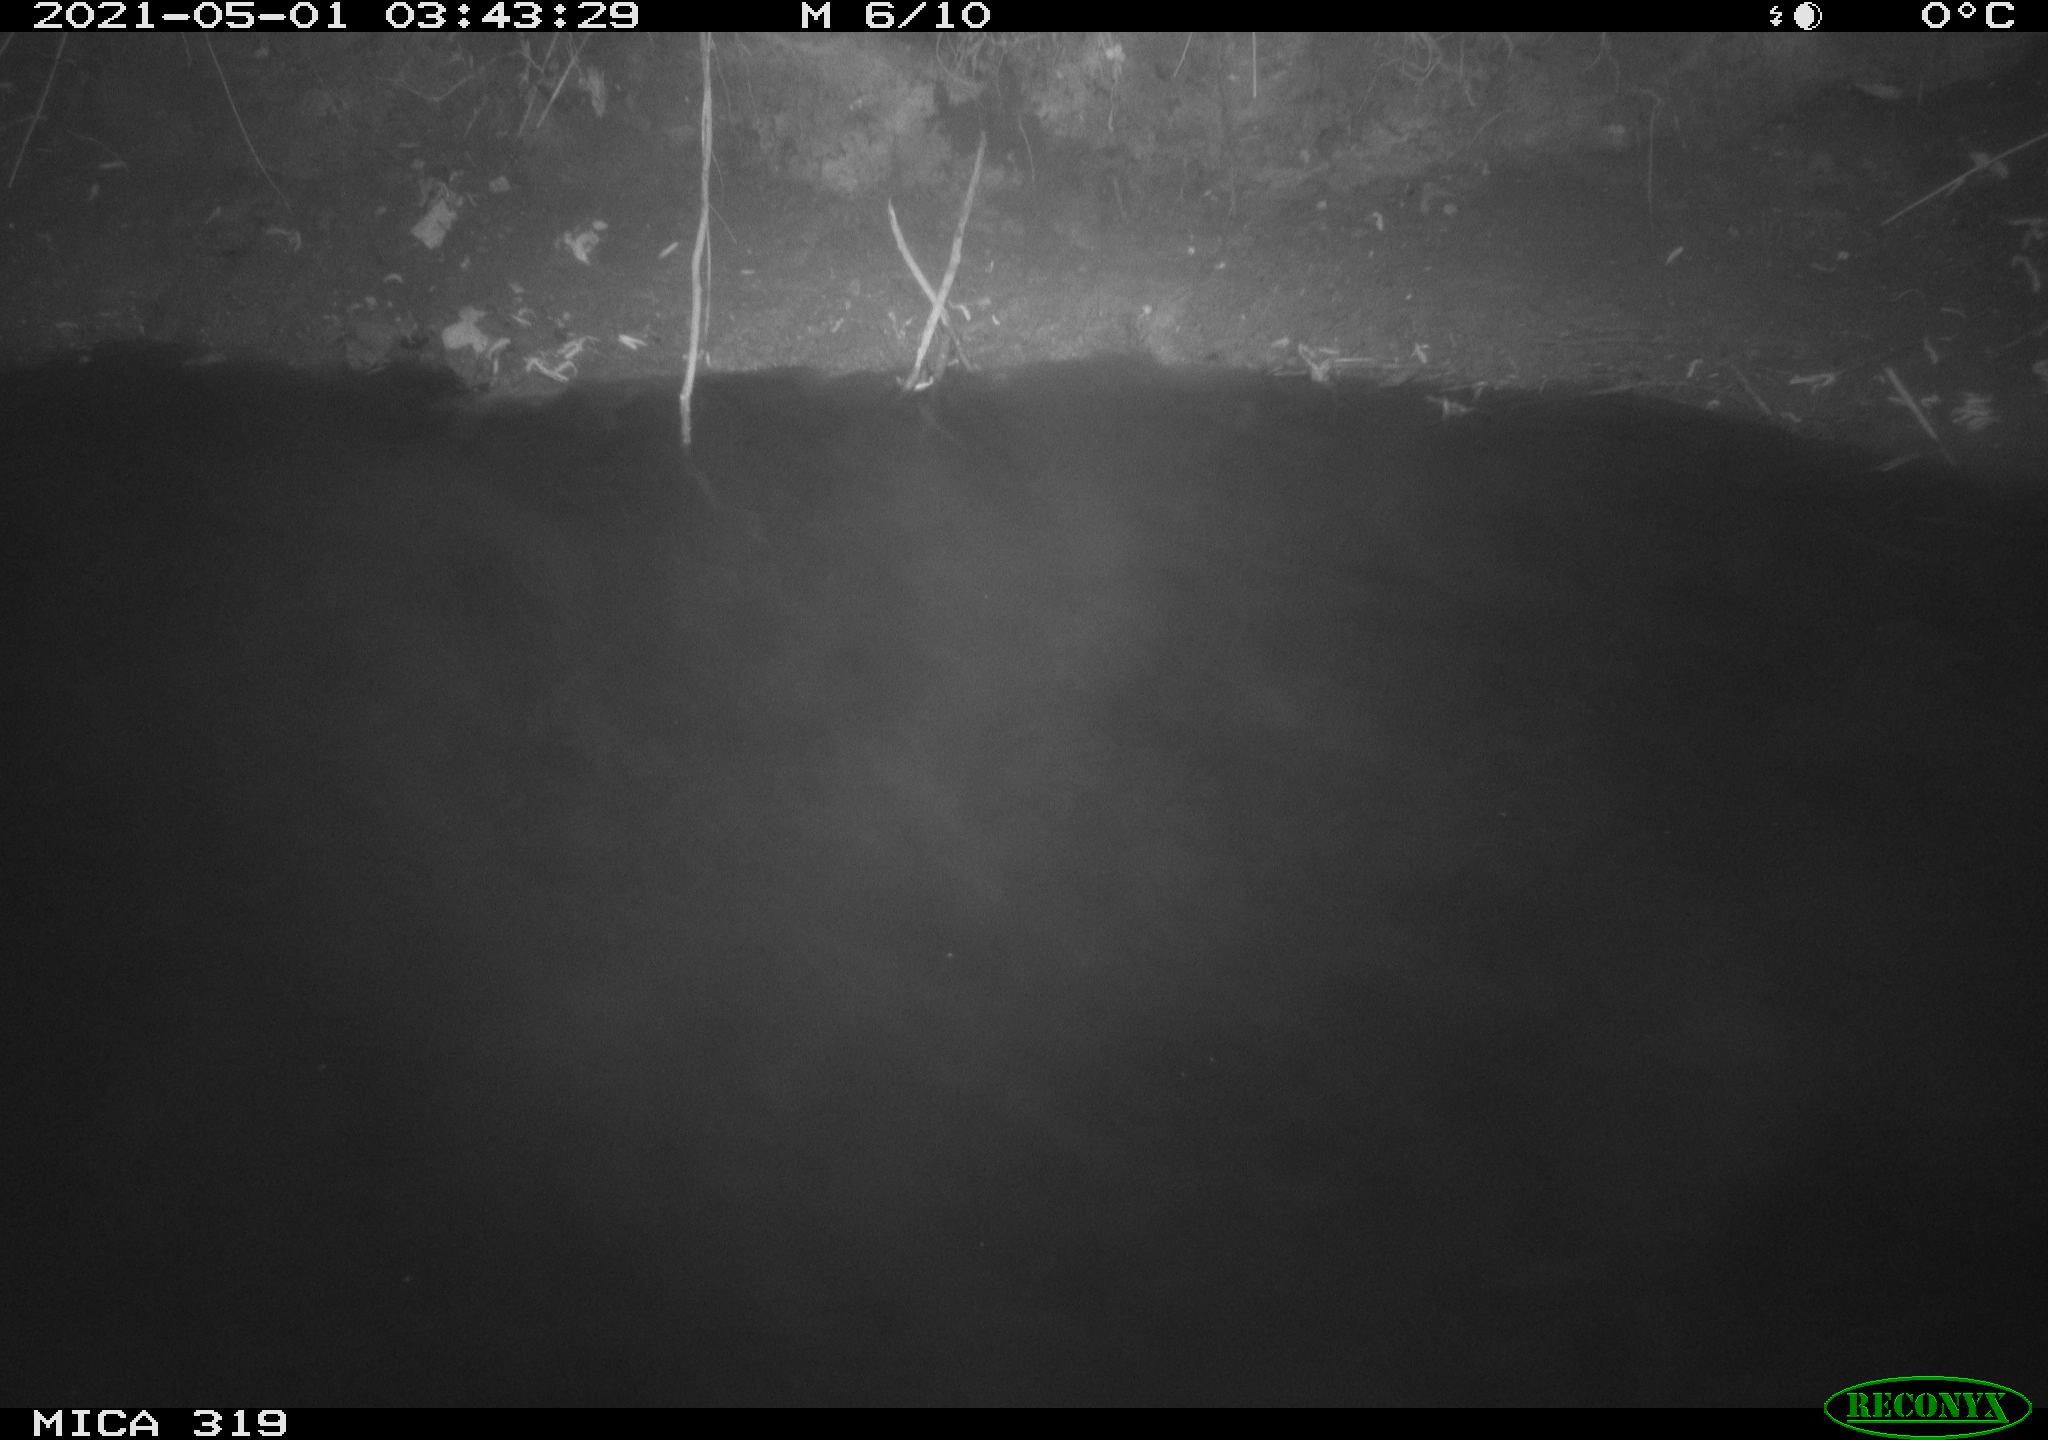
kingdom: Animalia
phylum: Chordata
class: Aves
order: Anseriformes
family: Anatidae
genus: Anas
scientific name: Anas platyrhynchos
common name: Mallard
